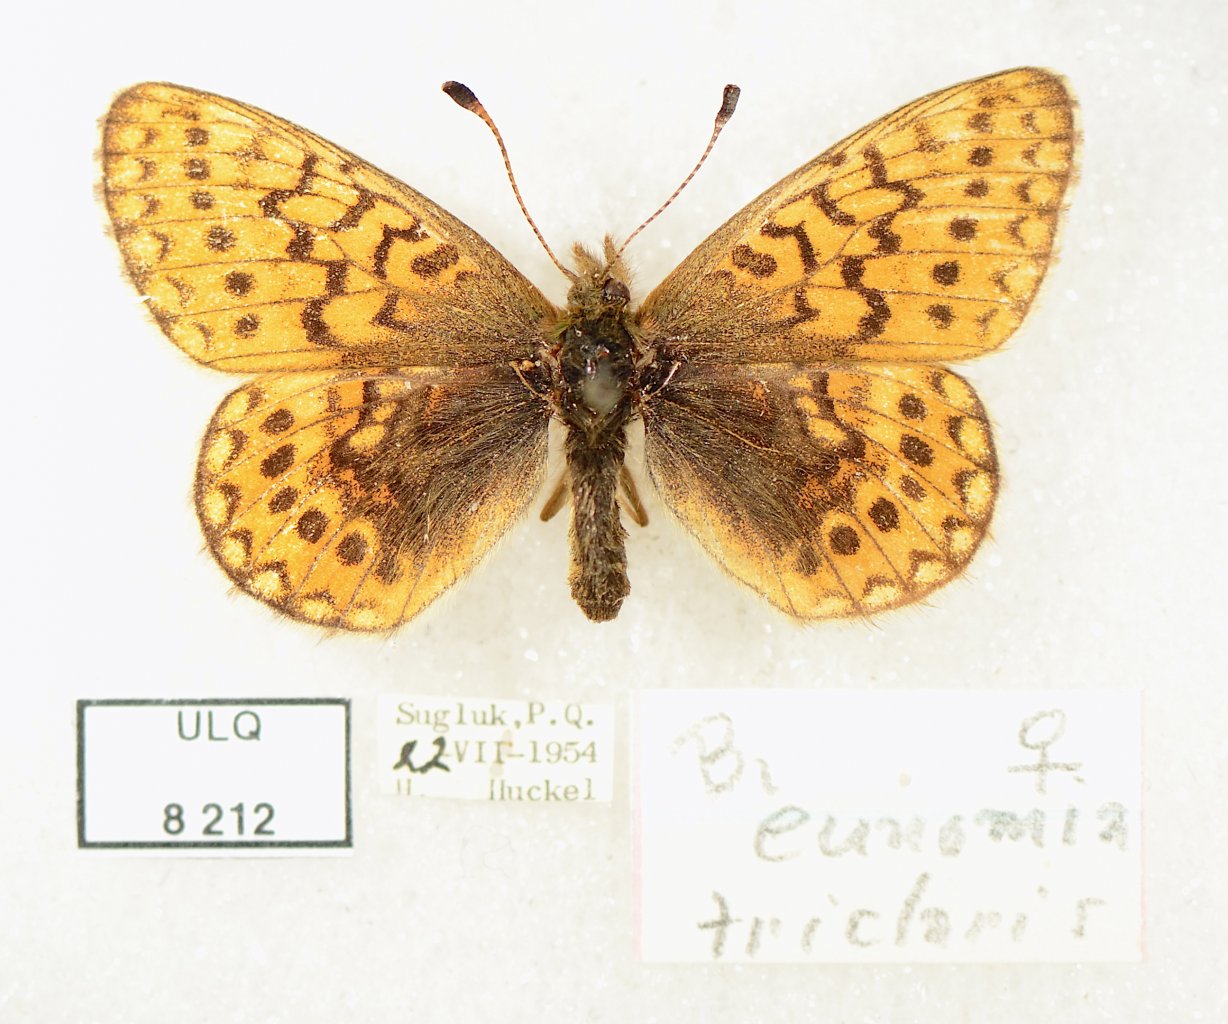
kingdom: Animalia
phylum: Arthropoda
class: Insecta
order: Lepidoptera
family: Nymphalidae
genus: Boloria
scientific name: Boloria eunomia
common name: Bog Fritillary
